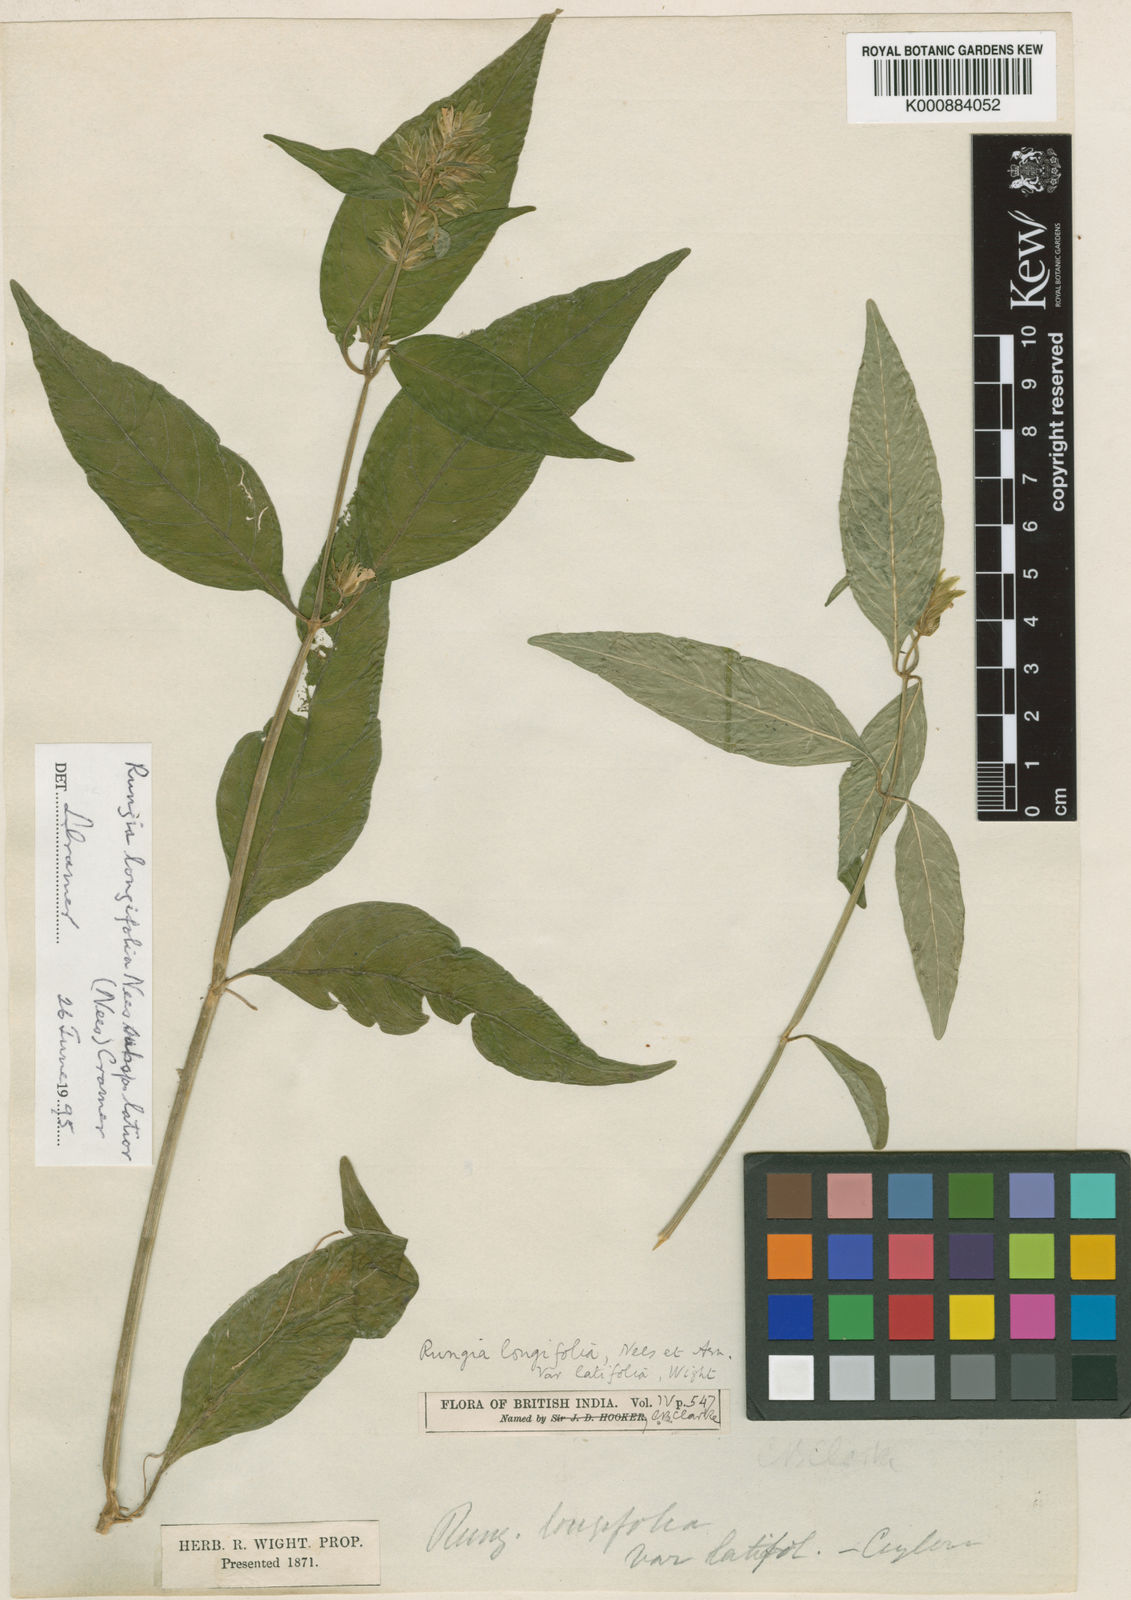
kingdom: Plantae
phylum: Tracheophyta
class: Magnoliopsida
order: Lamiales
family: Acanthaceae
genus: Justicia
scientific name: Justicia
